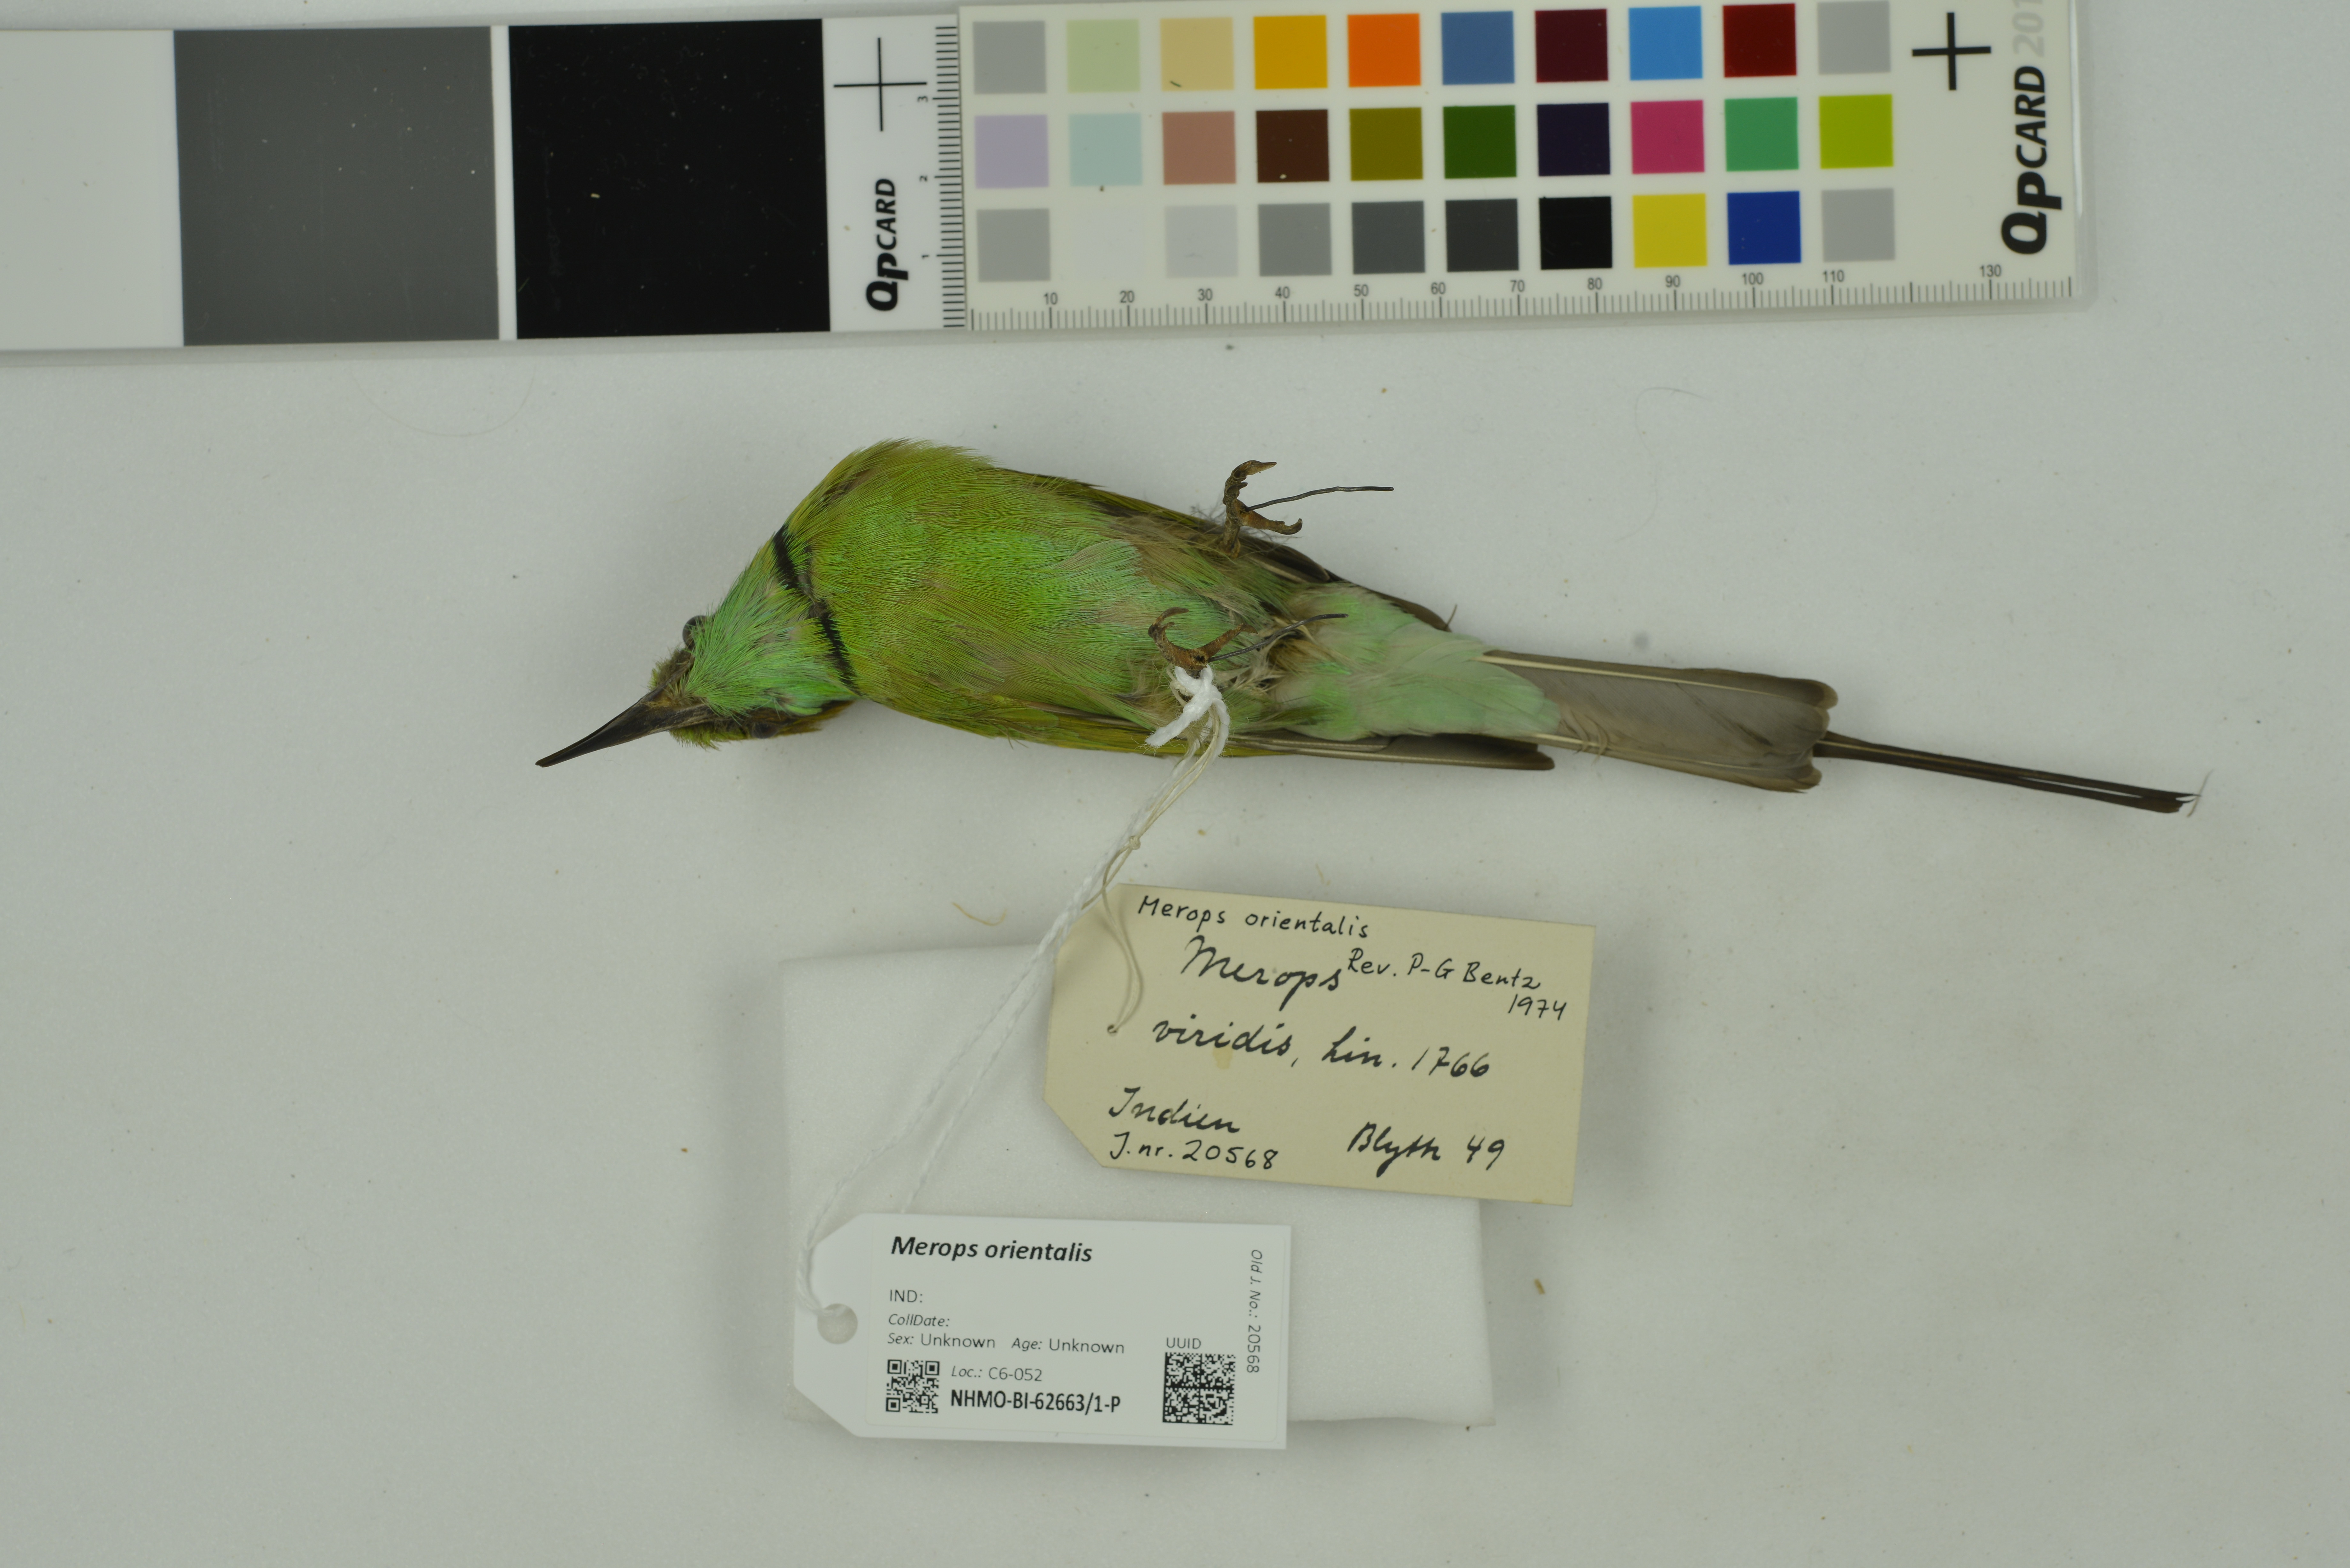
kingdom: Animalia
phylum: Chordata
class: Aves
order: Coraciiformes
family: Meropidae
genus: Merops
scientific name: Merops orientalis
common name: Green bee-eater
